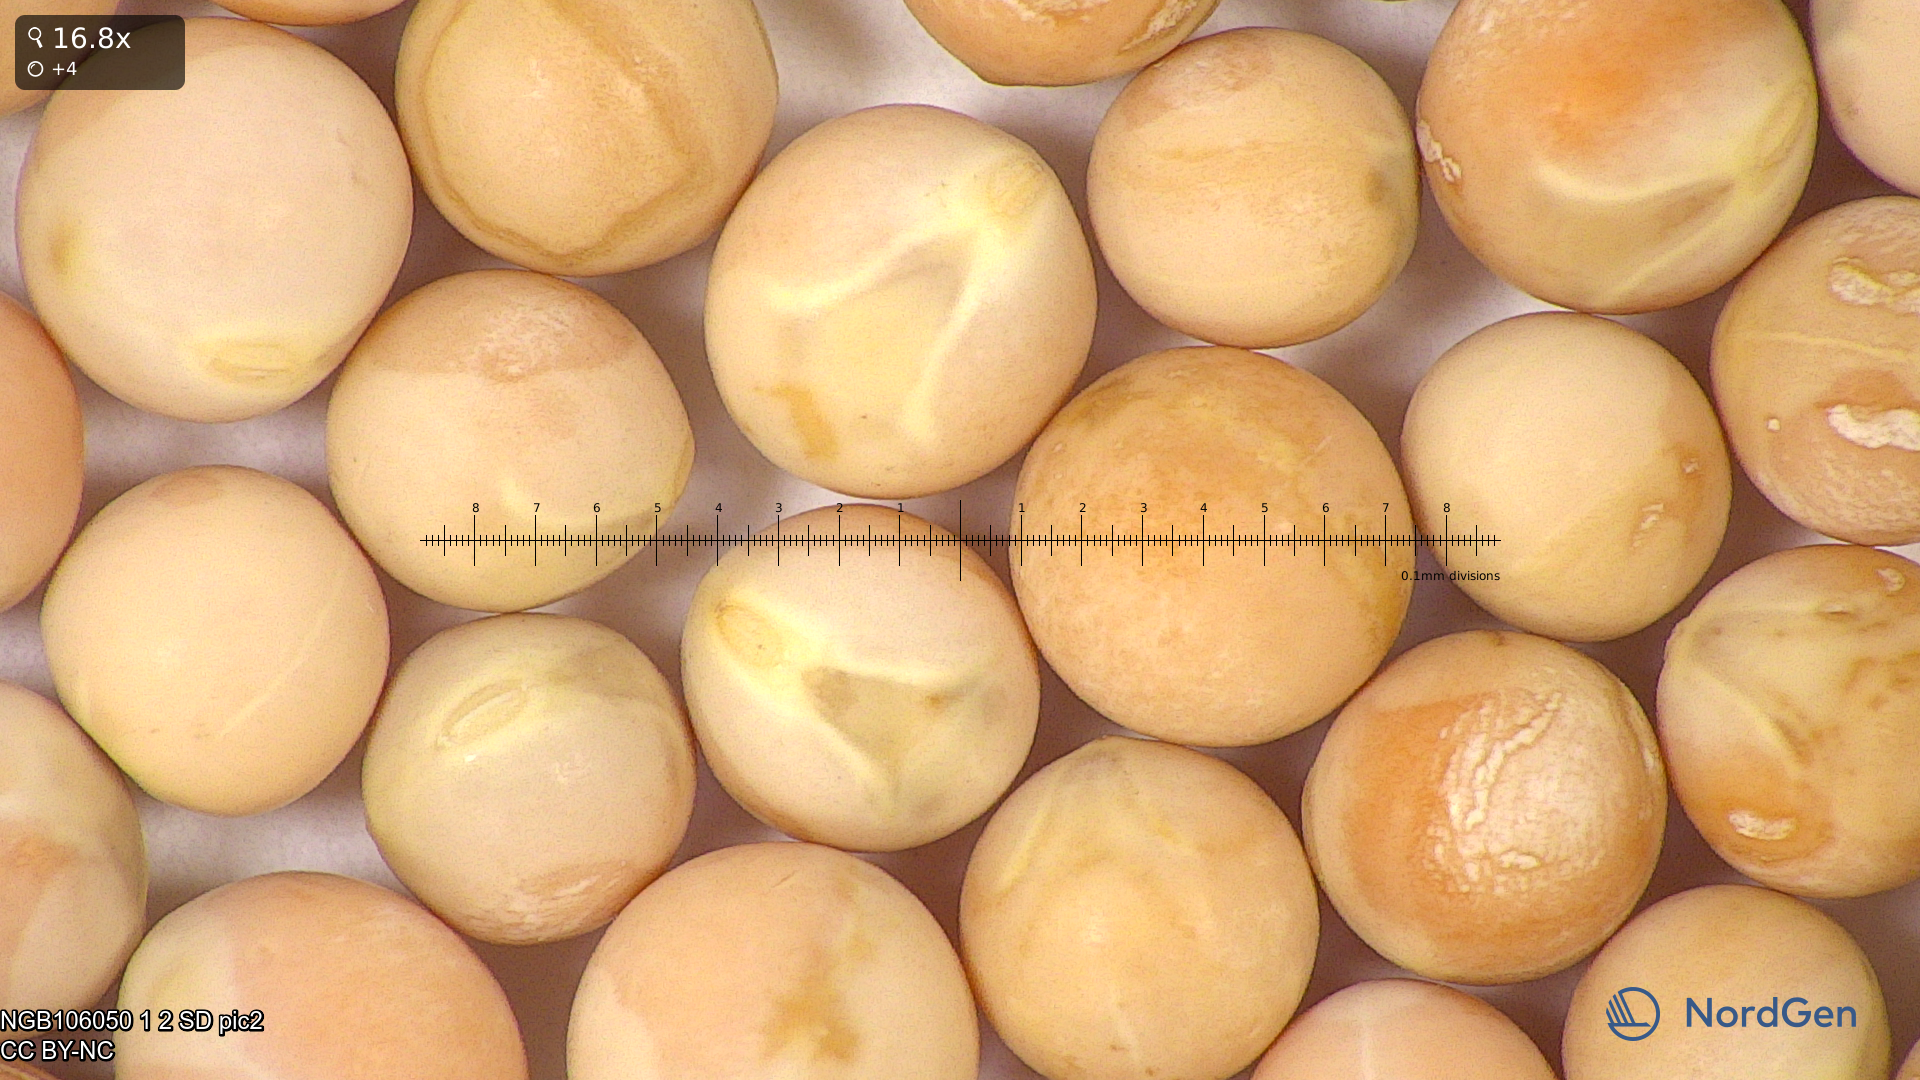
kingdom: Plantae
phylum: Tracheophyta
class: Magnoliopsida
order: Fabales
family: Fabaceae
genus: Lathyrus
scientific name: Lathyrus oleraceus
